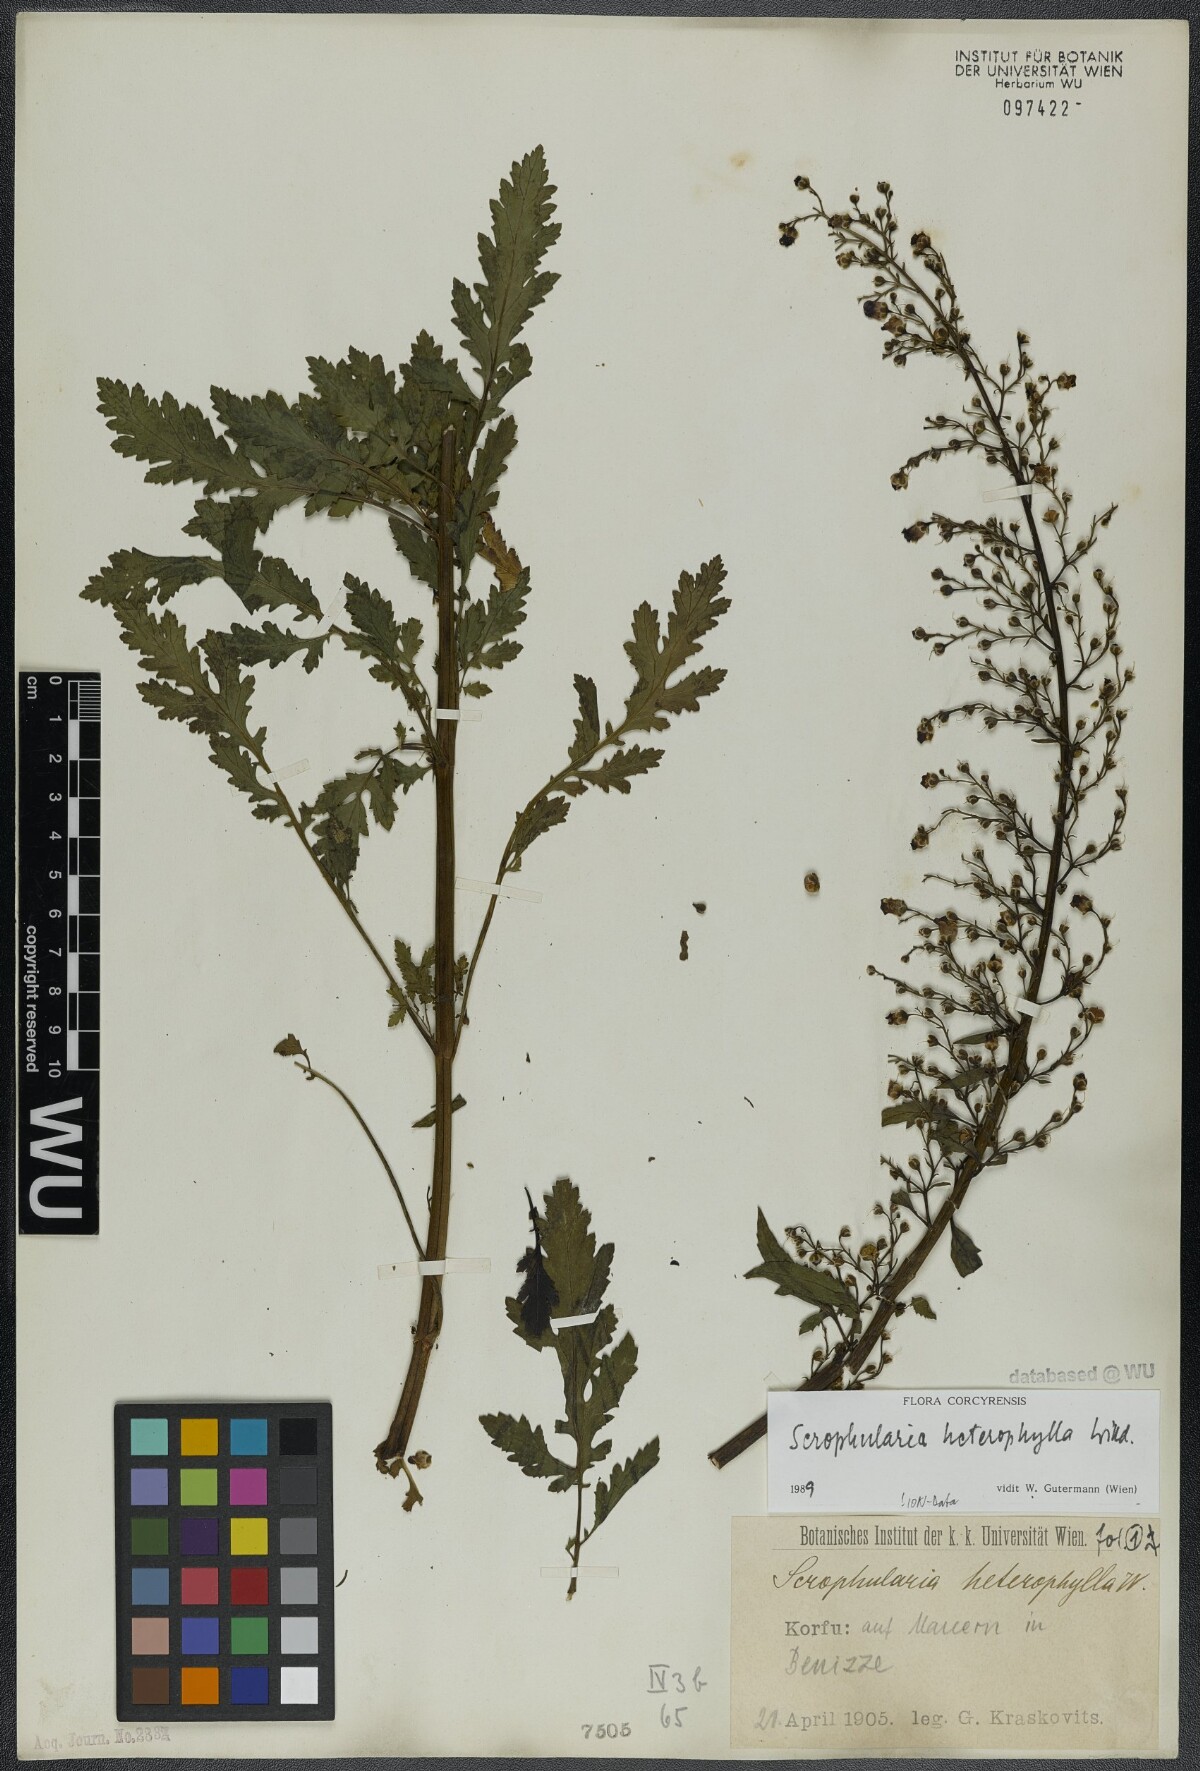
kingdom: Plantae
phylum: Tracheophyta
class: Magnoliopsida
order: Lamiales
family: Scrophulariaceae
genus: Scrophularia
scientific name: Scrophularia heterophylla
